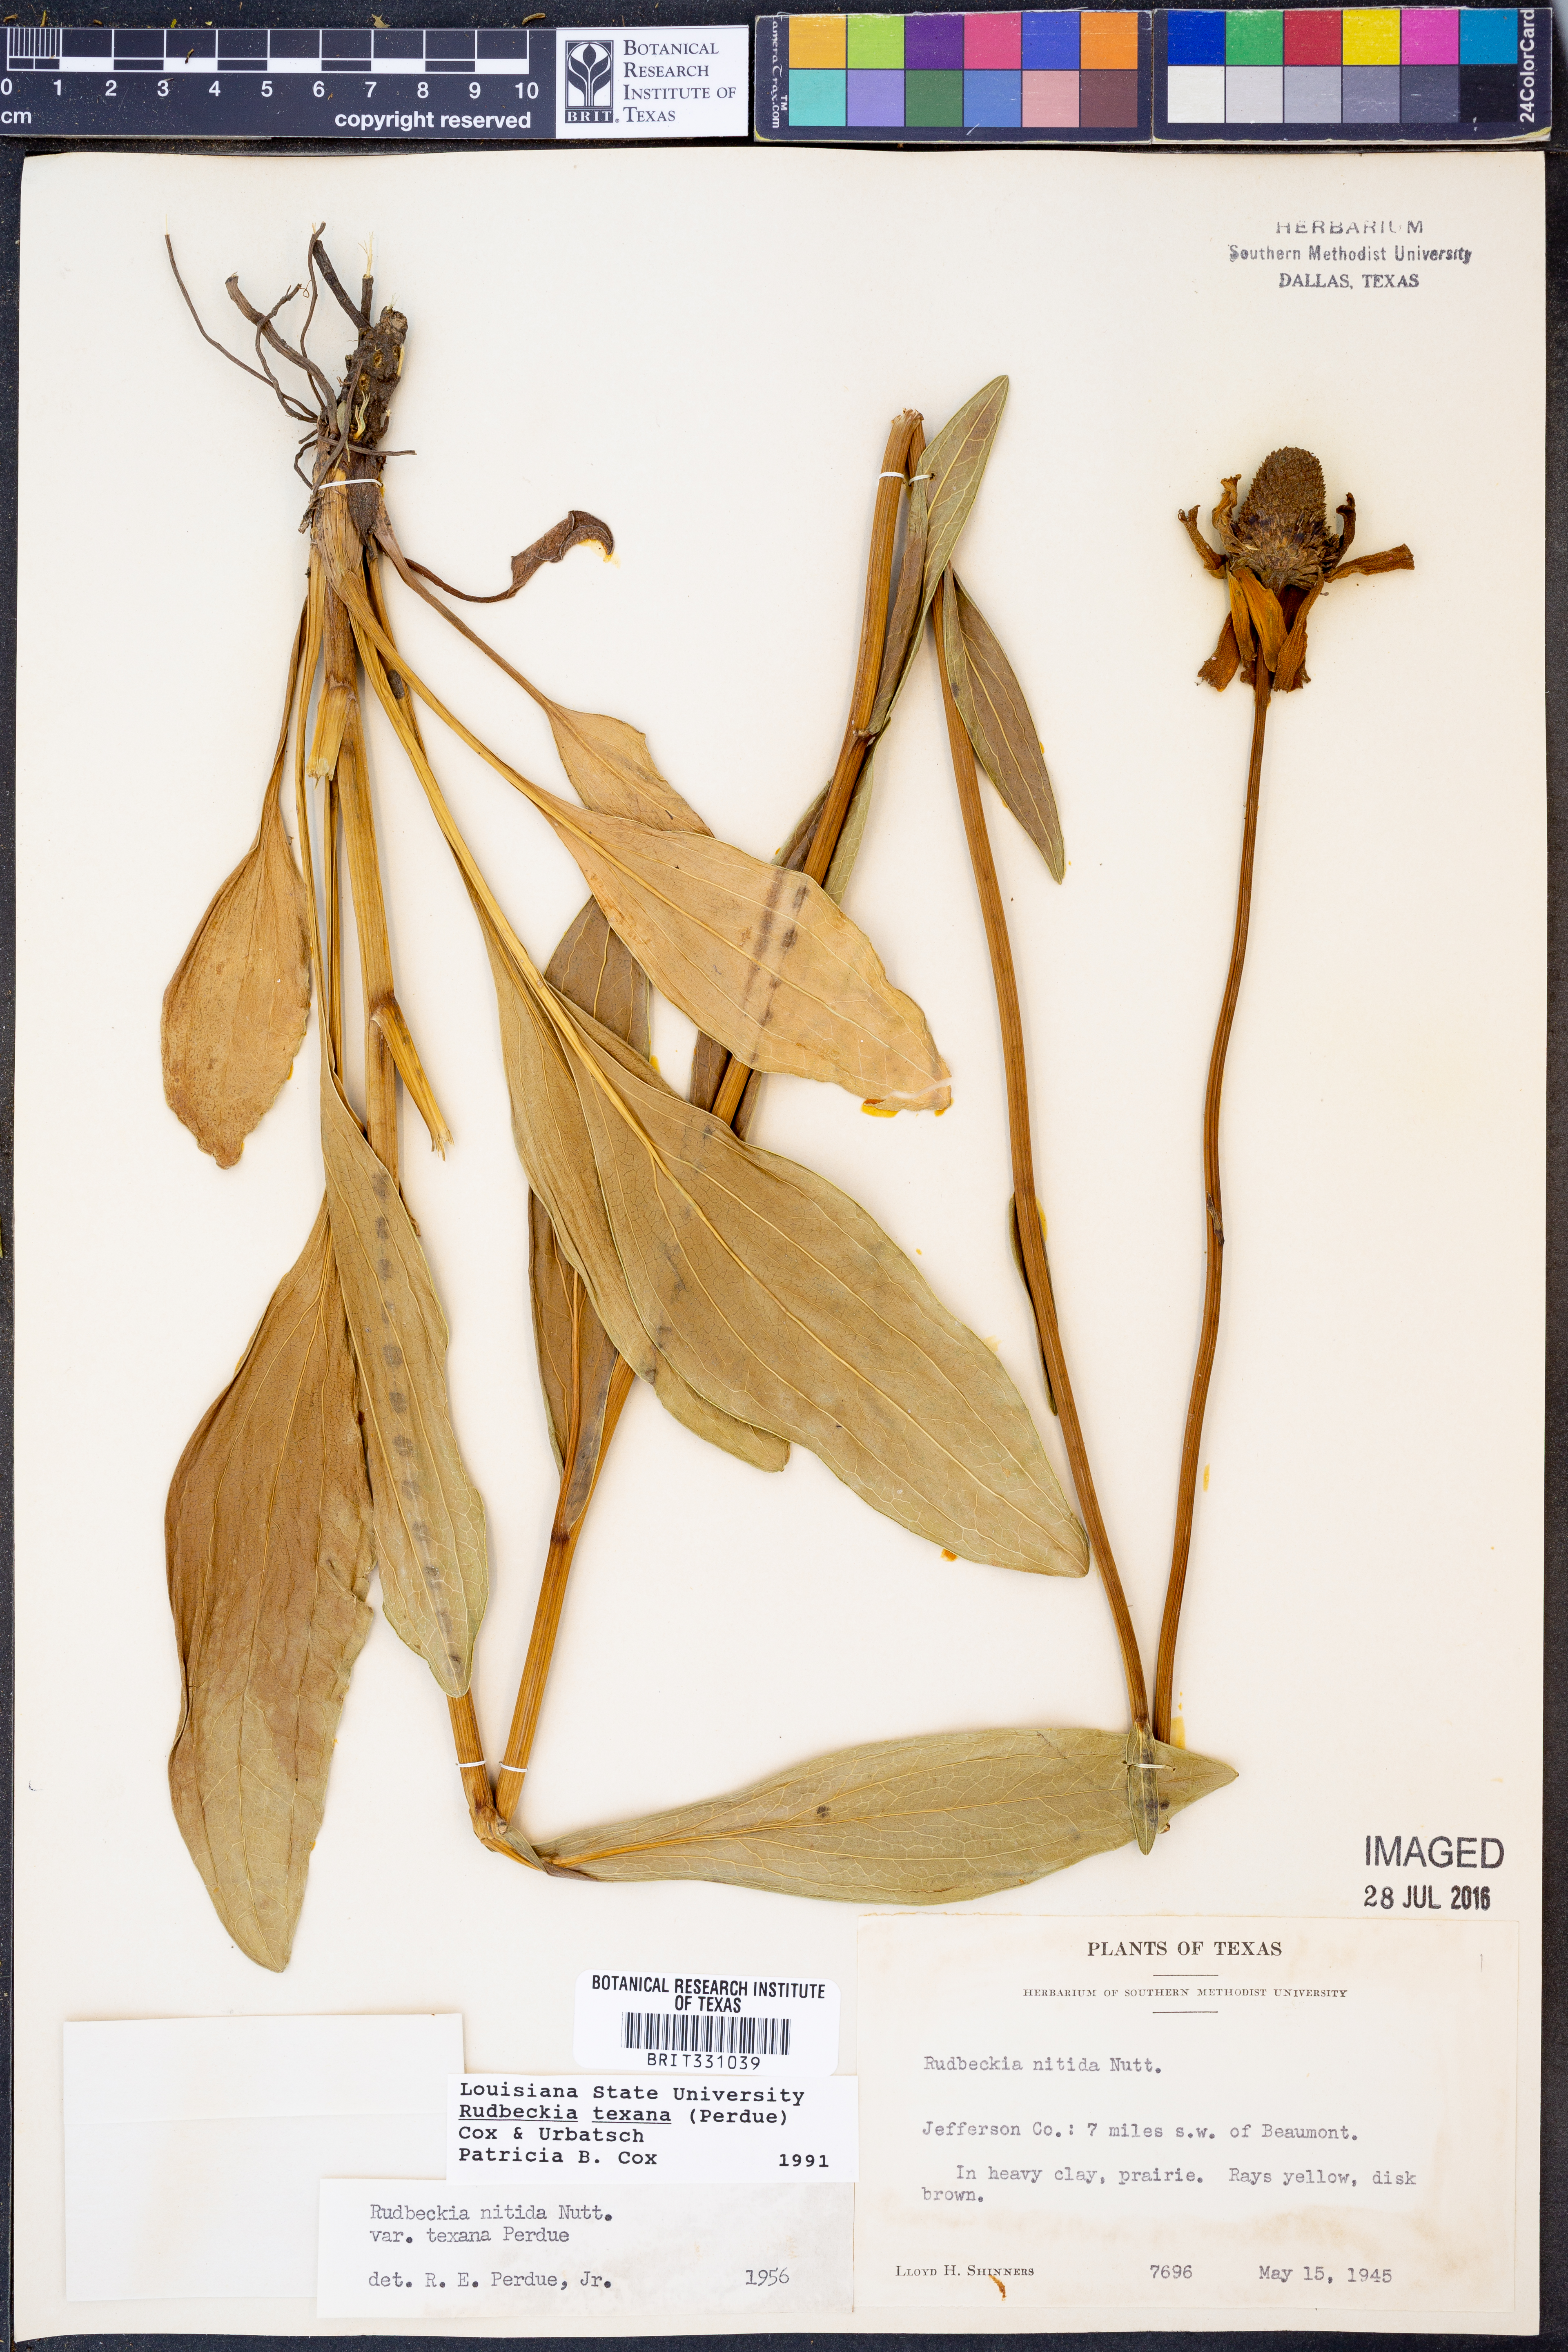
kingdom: Plantae
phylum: Tracheophyta
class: Magnoliopsida
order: Asterales
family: Asteraceae
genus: Rudbeckia
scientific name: Rudbeckia texana
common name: Texas coneflower
